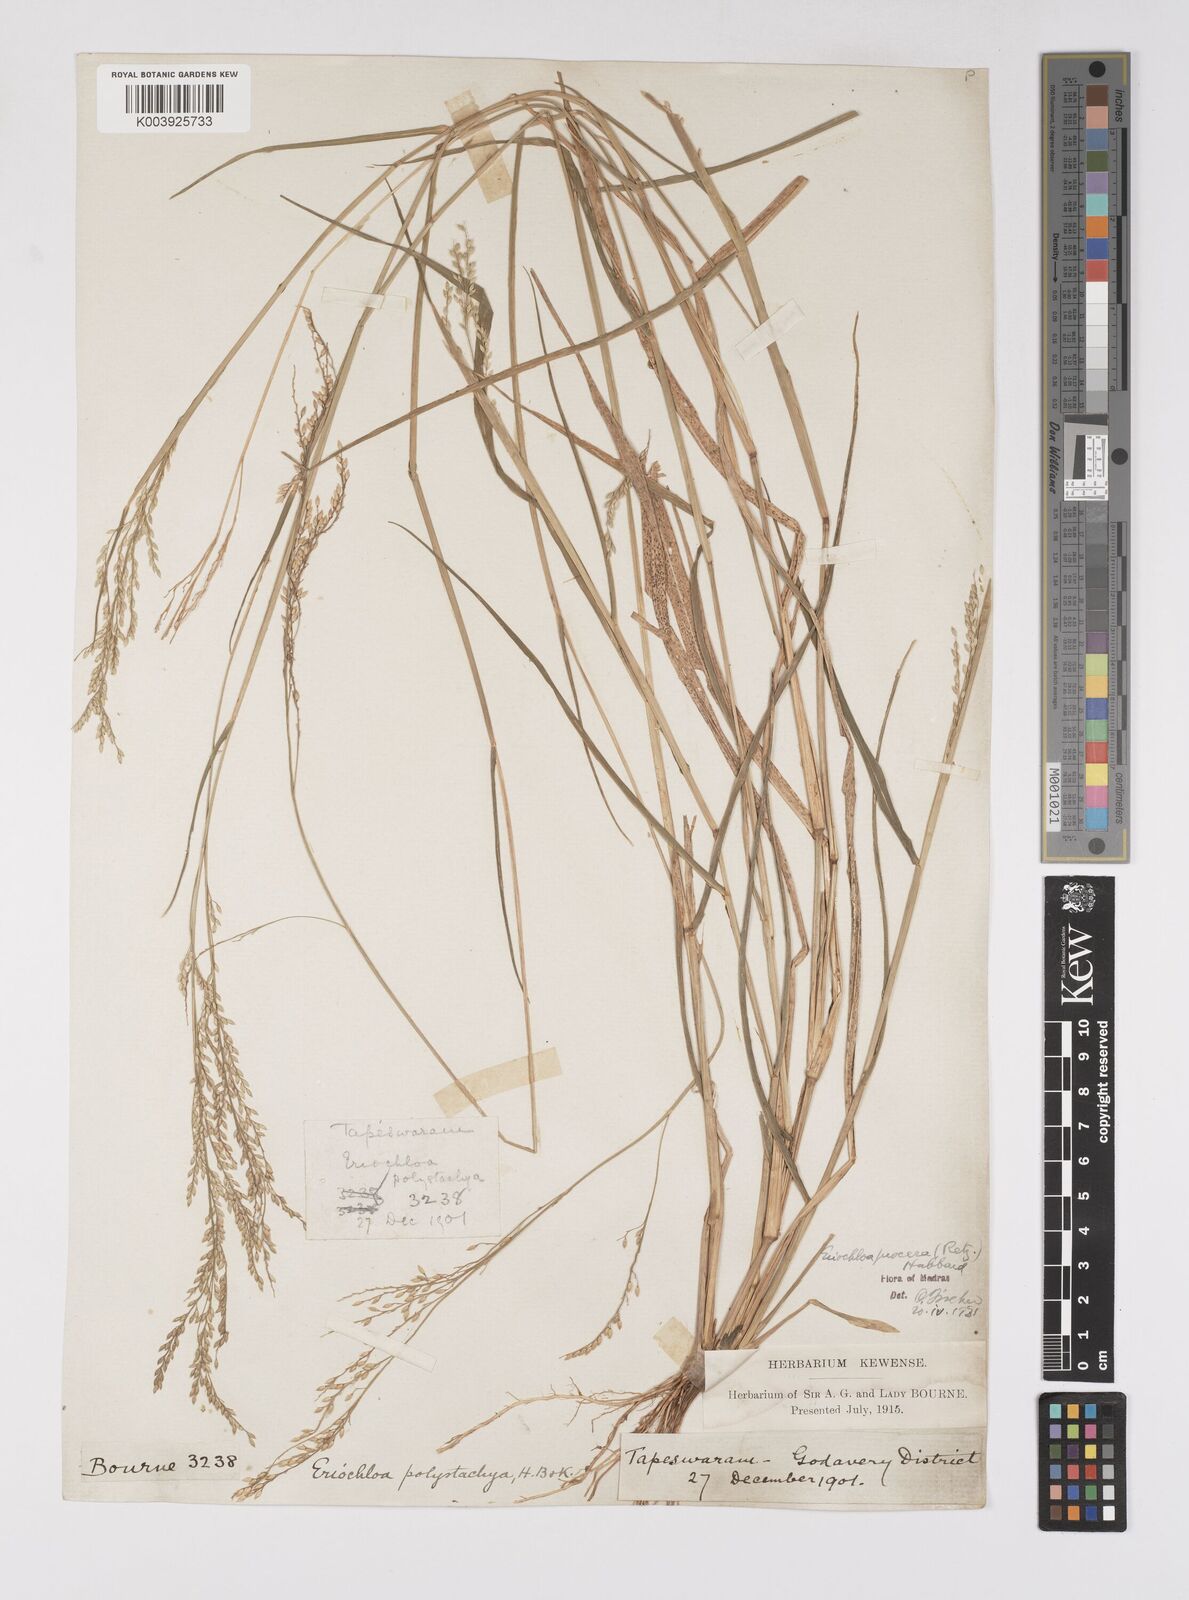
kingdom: Plantae
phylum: Tracheophyta
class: Liliopsida
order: Poales
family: Poaceae
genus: Eriochloa
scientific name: Eriochloa procera
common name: Spring grass
